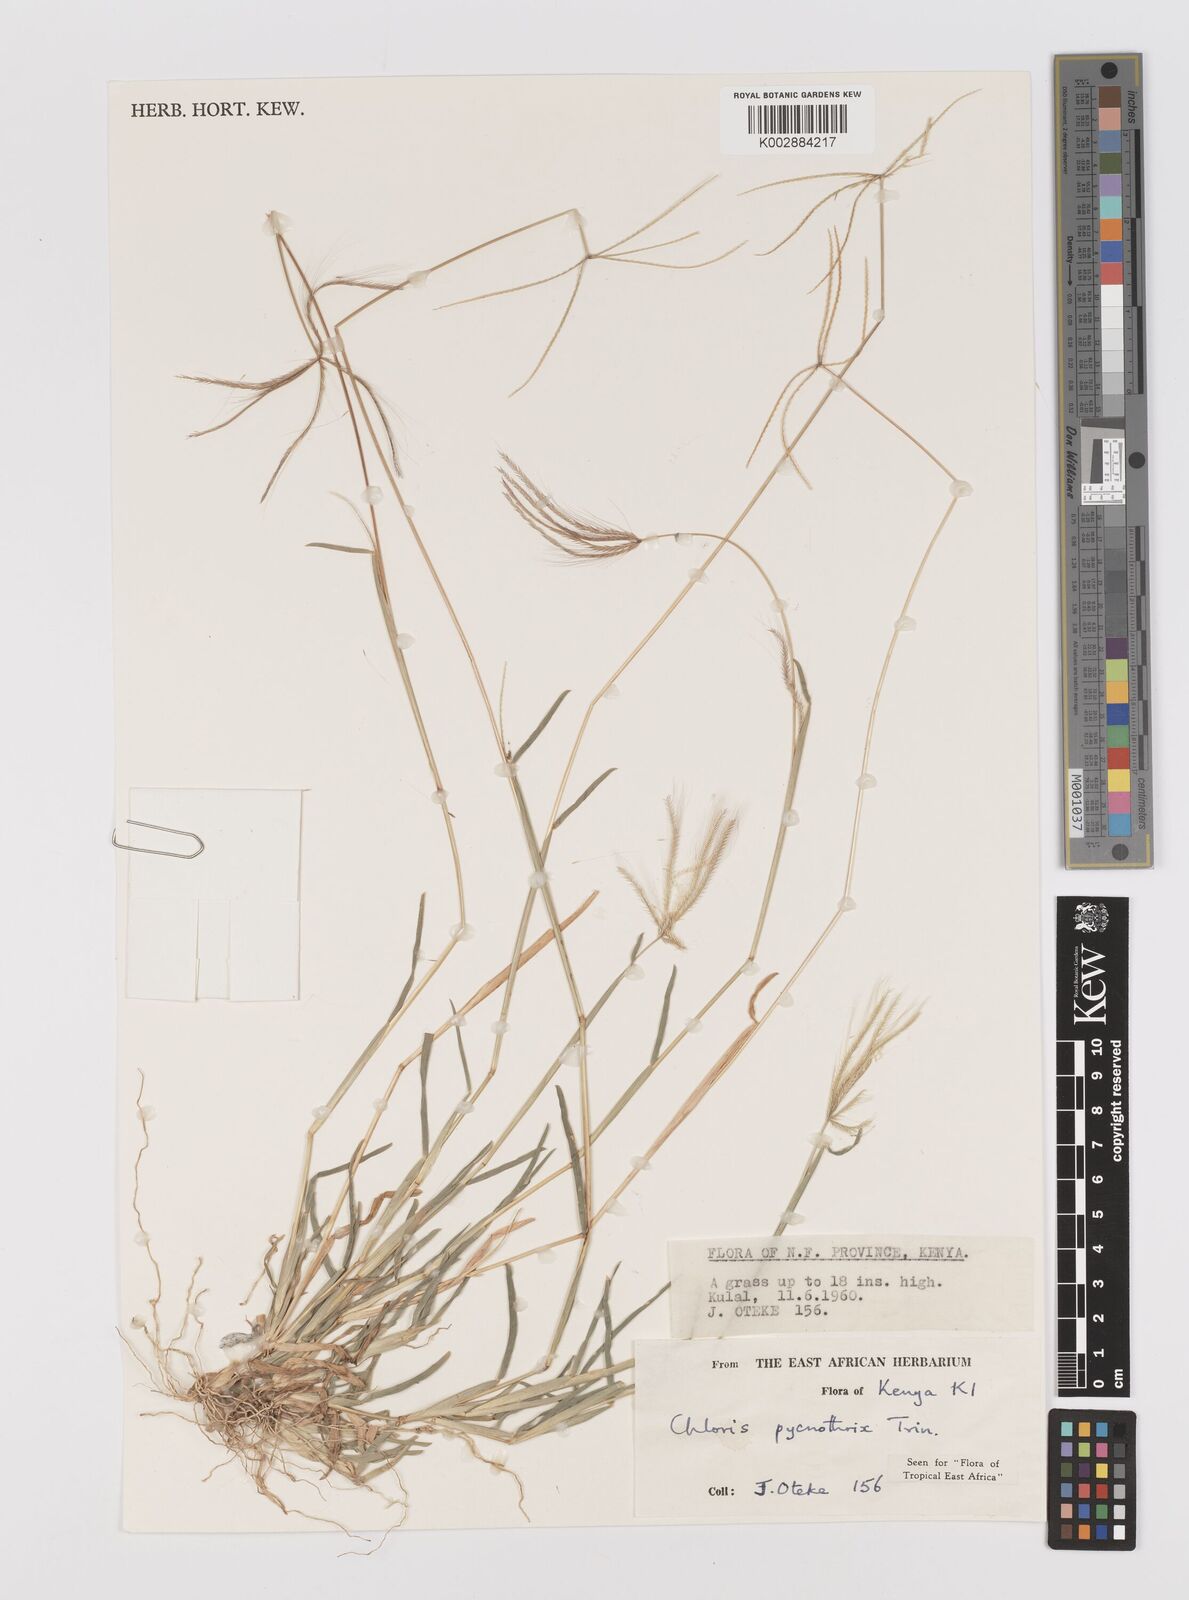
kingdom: Plantae
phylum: Tracheophyta
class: Liliopsida
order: Poales
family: Poaceae
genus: Chloris
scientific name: Chloris pycnothrix
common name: Spiderweb chloris
